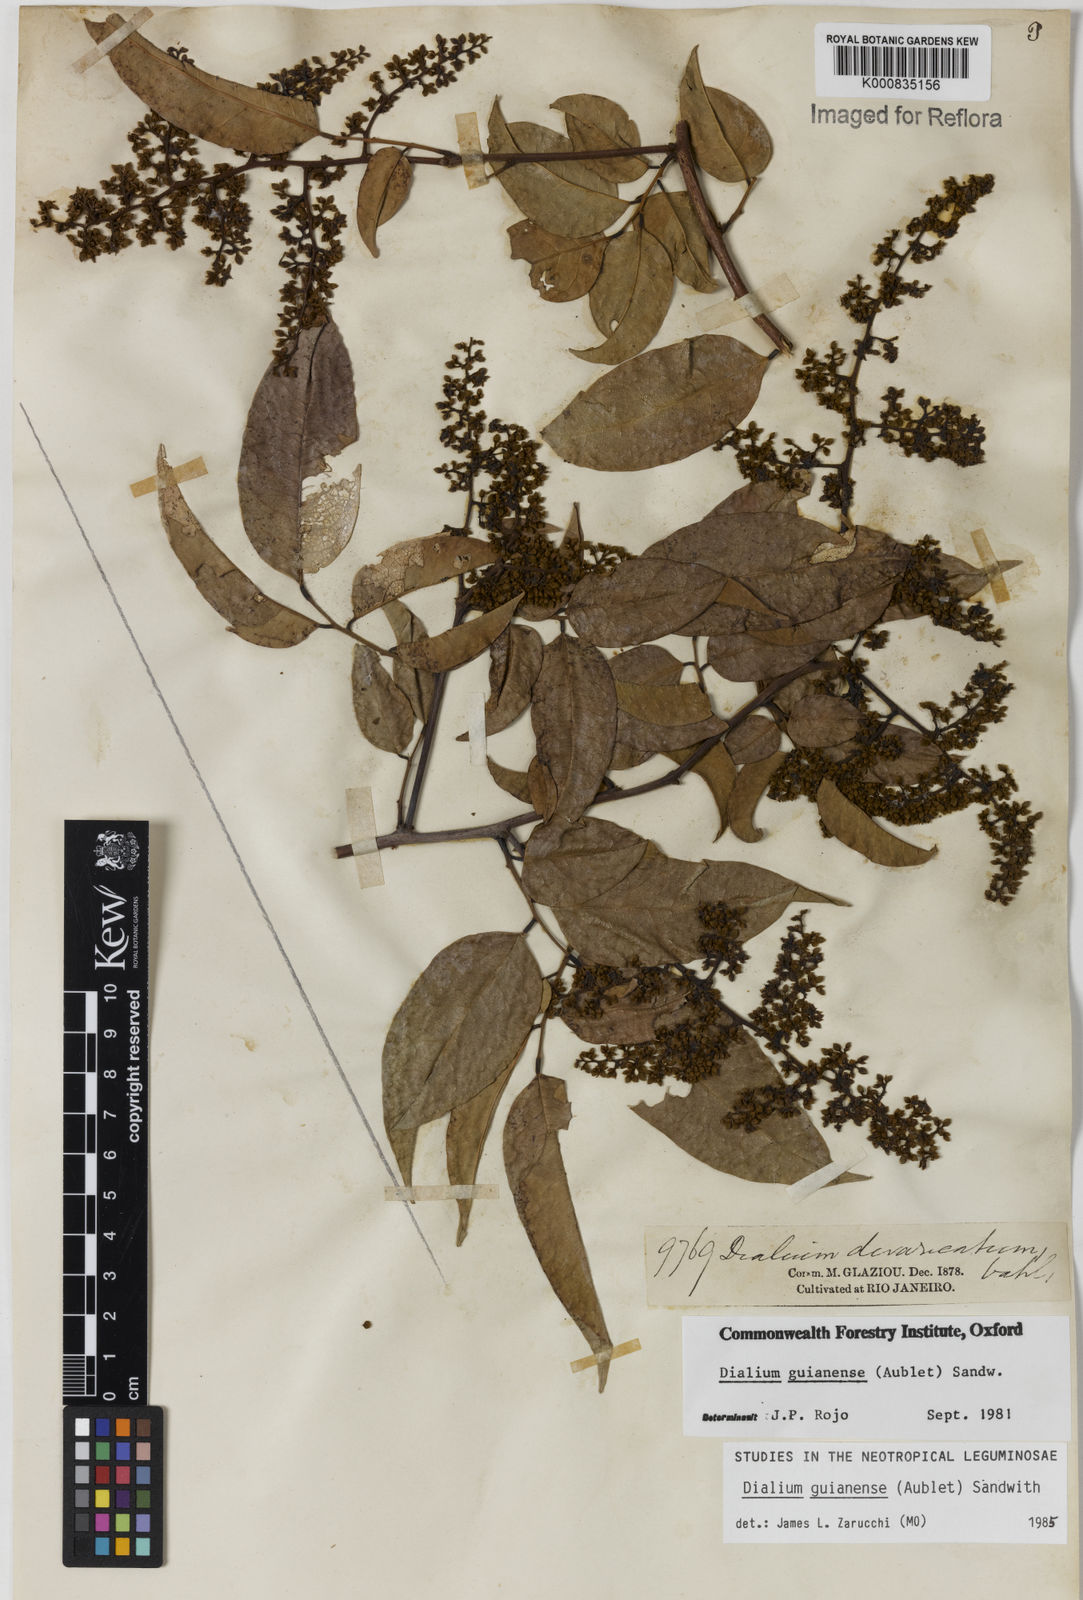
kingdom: Plantae
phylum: Tracheophyta
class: Magnoliopsida
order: Fabales
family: Fabaceae
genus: Dialium
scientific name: Dialium guianense
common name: Ironwood
